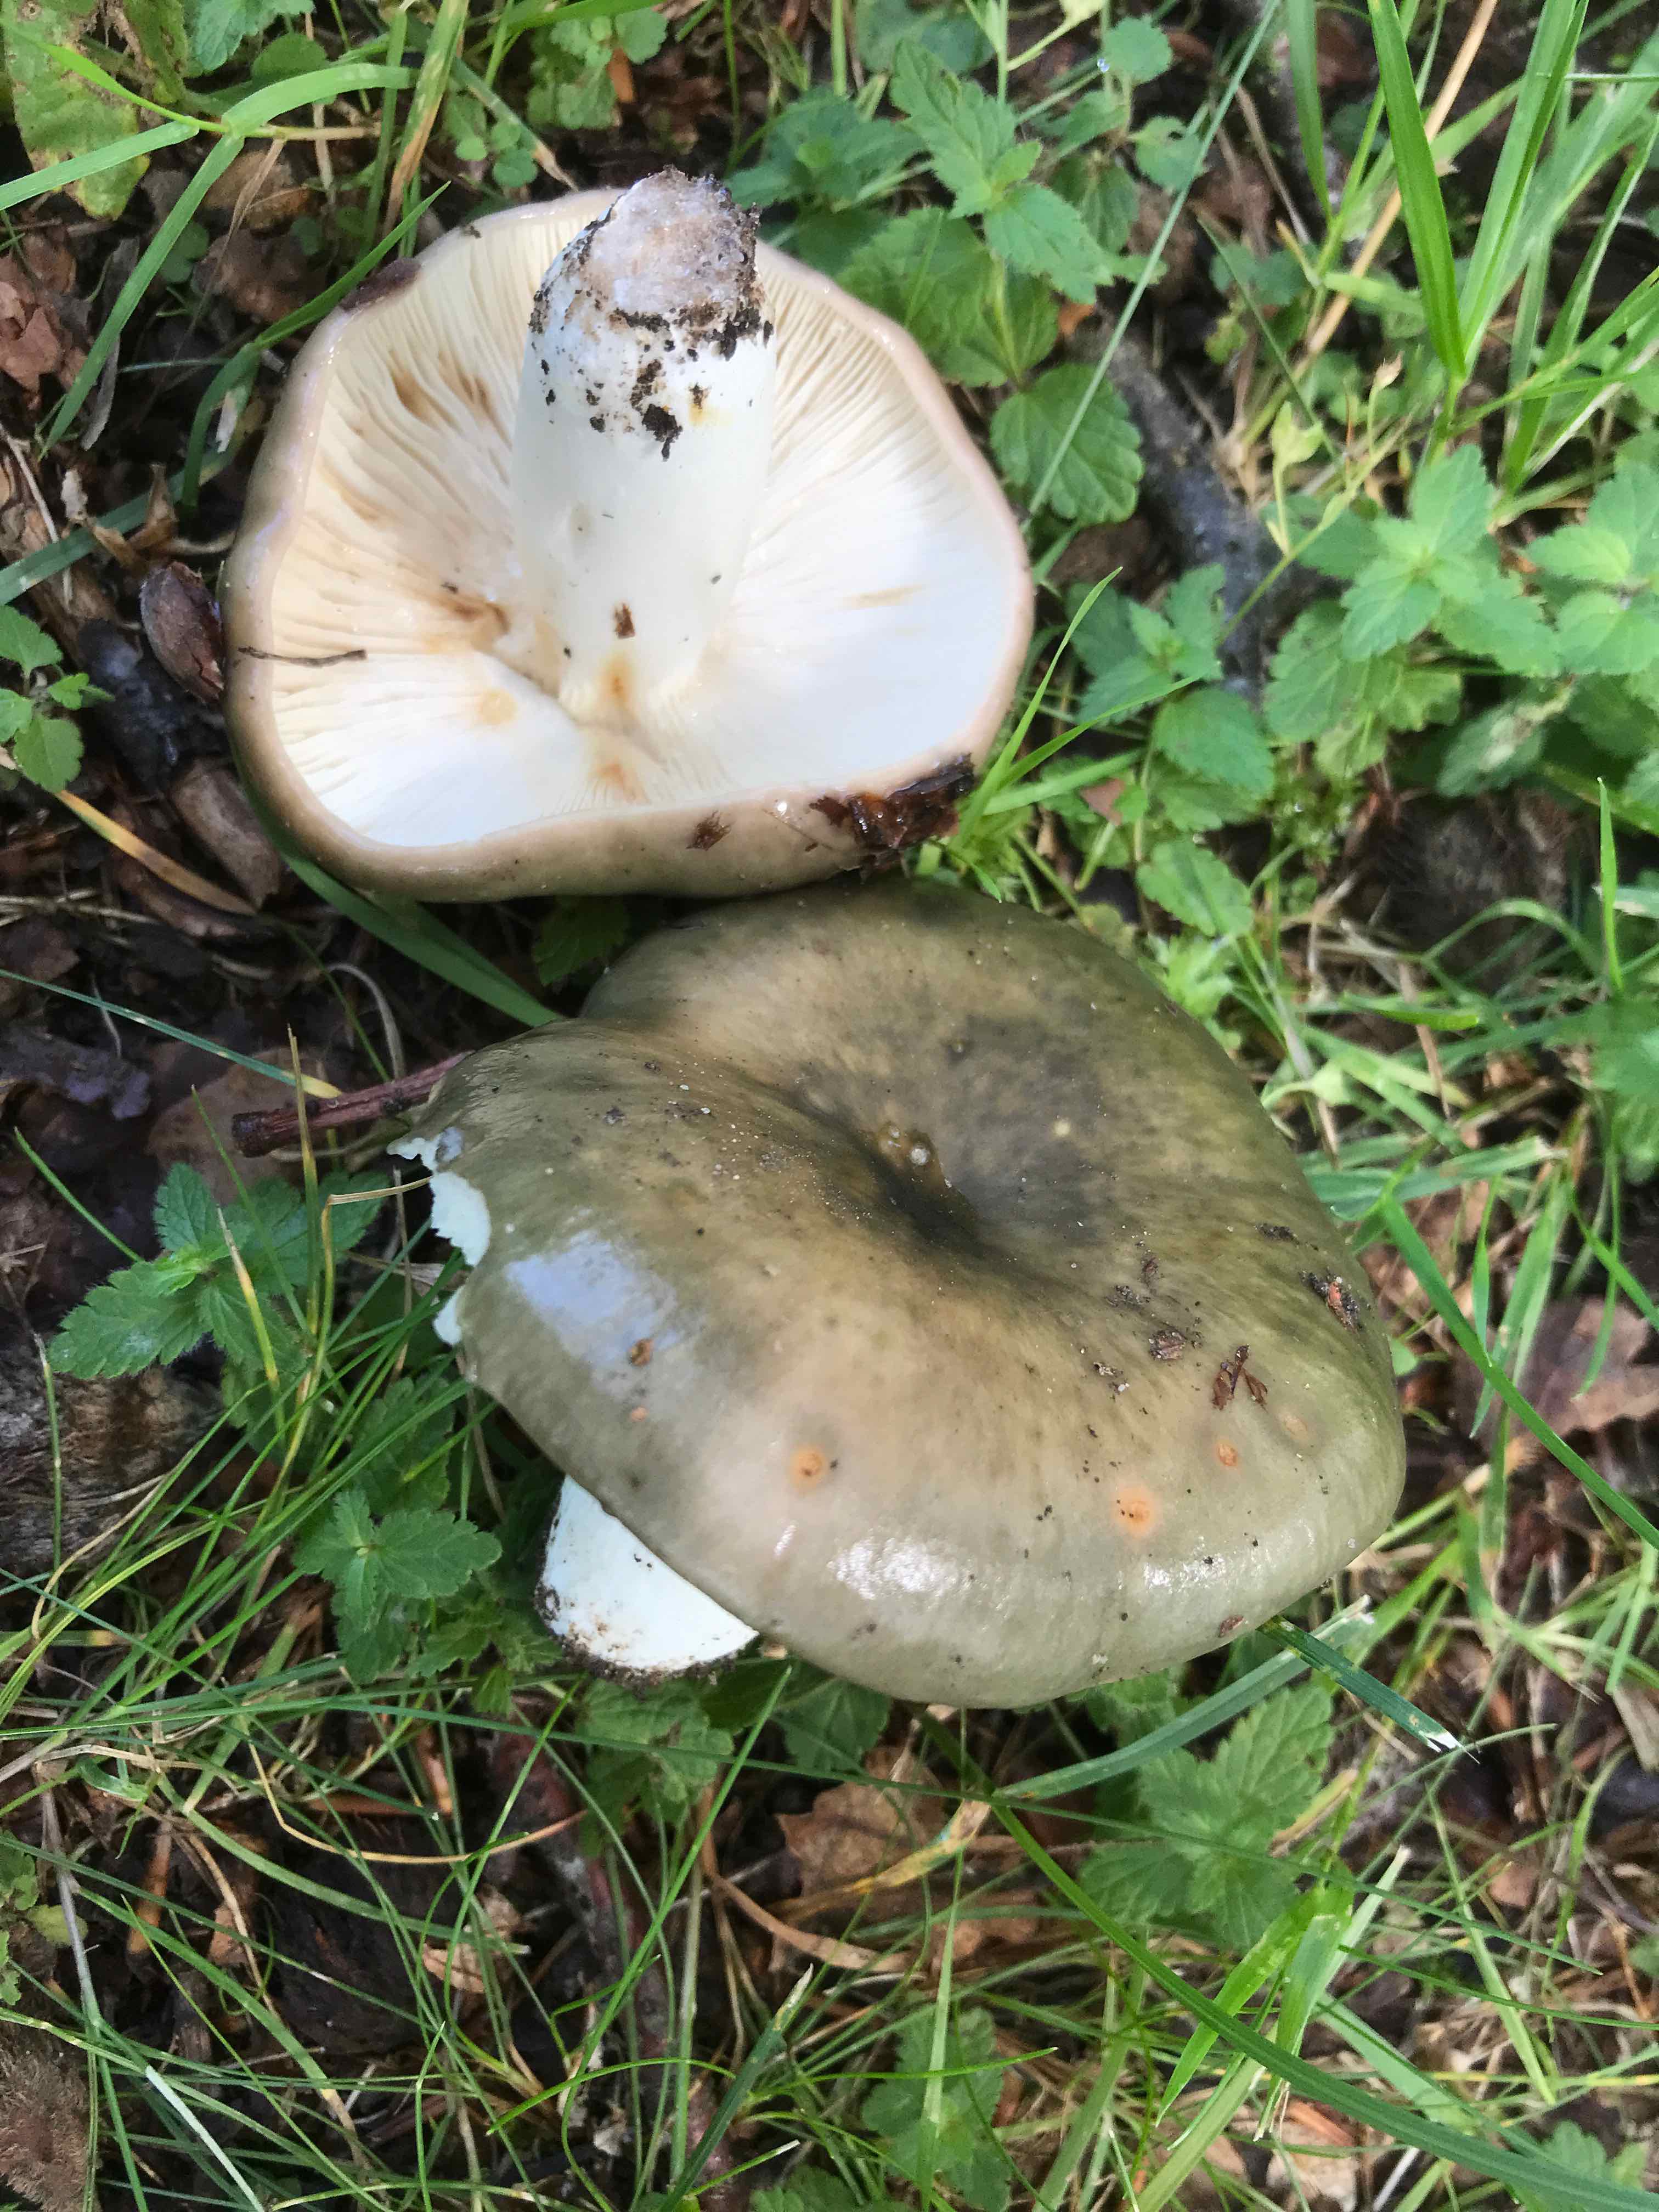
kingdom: Fungi
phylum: Basidiomycota
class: Agaricomycetes
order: Russulales
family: Russulaceae
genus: Russula
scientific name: Russula
